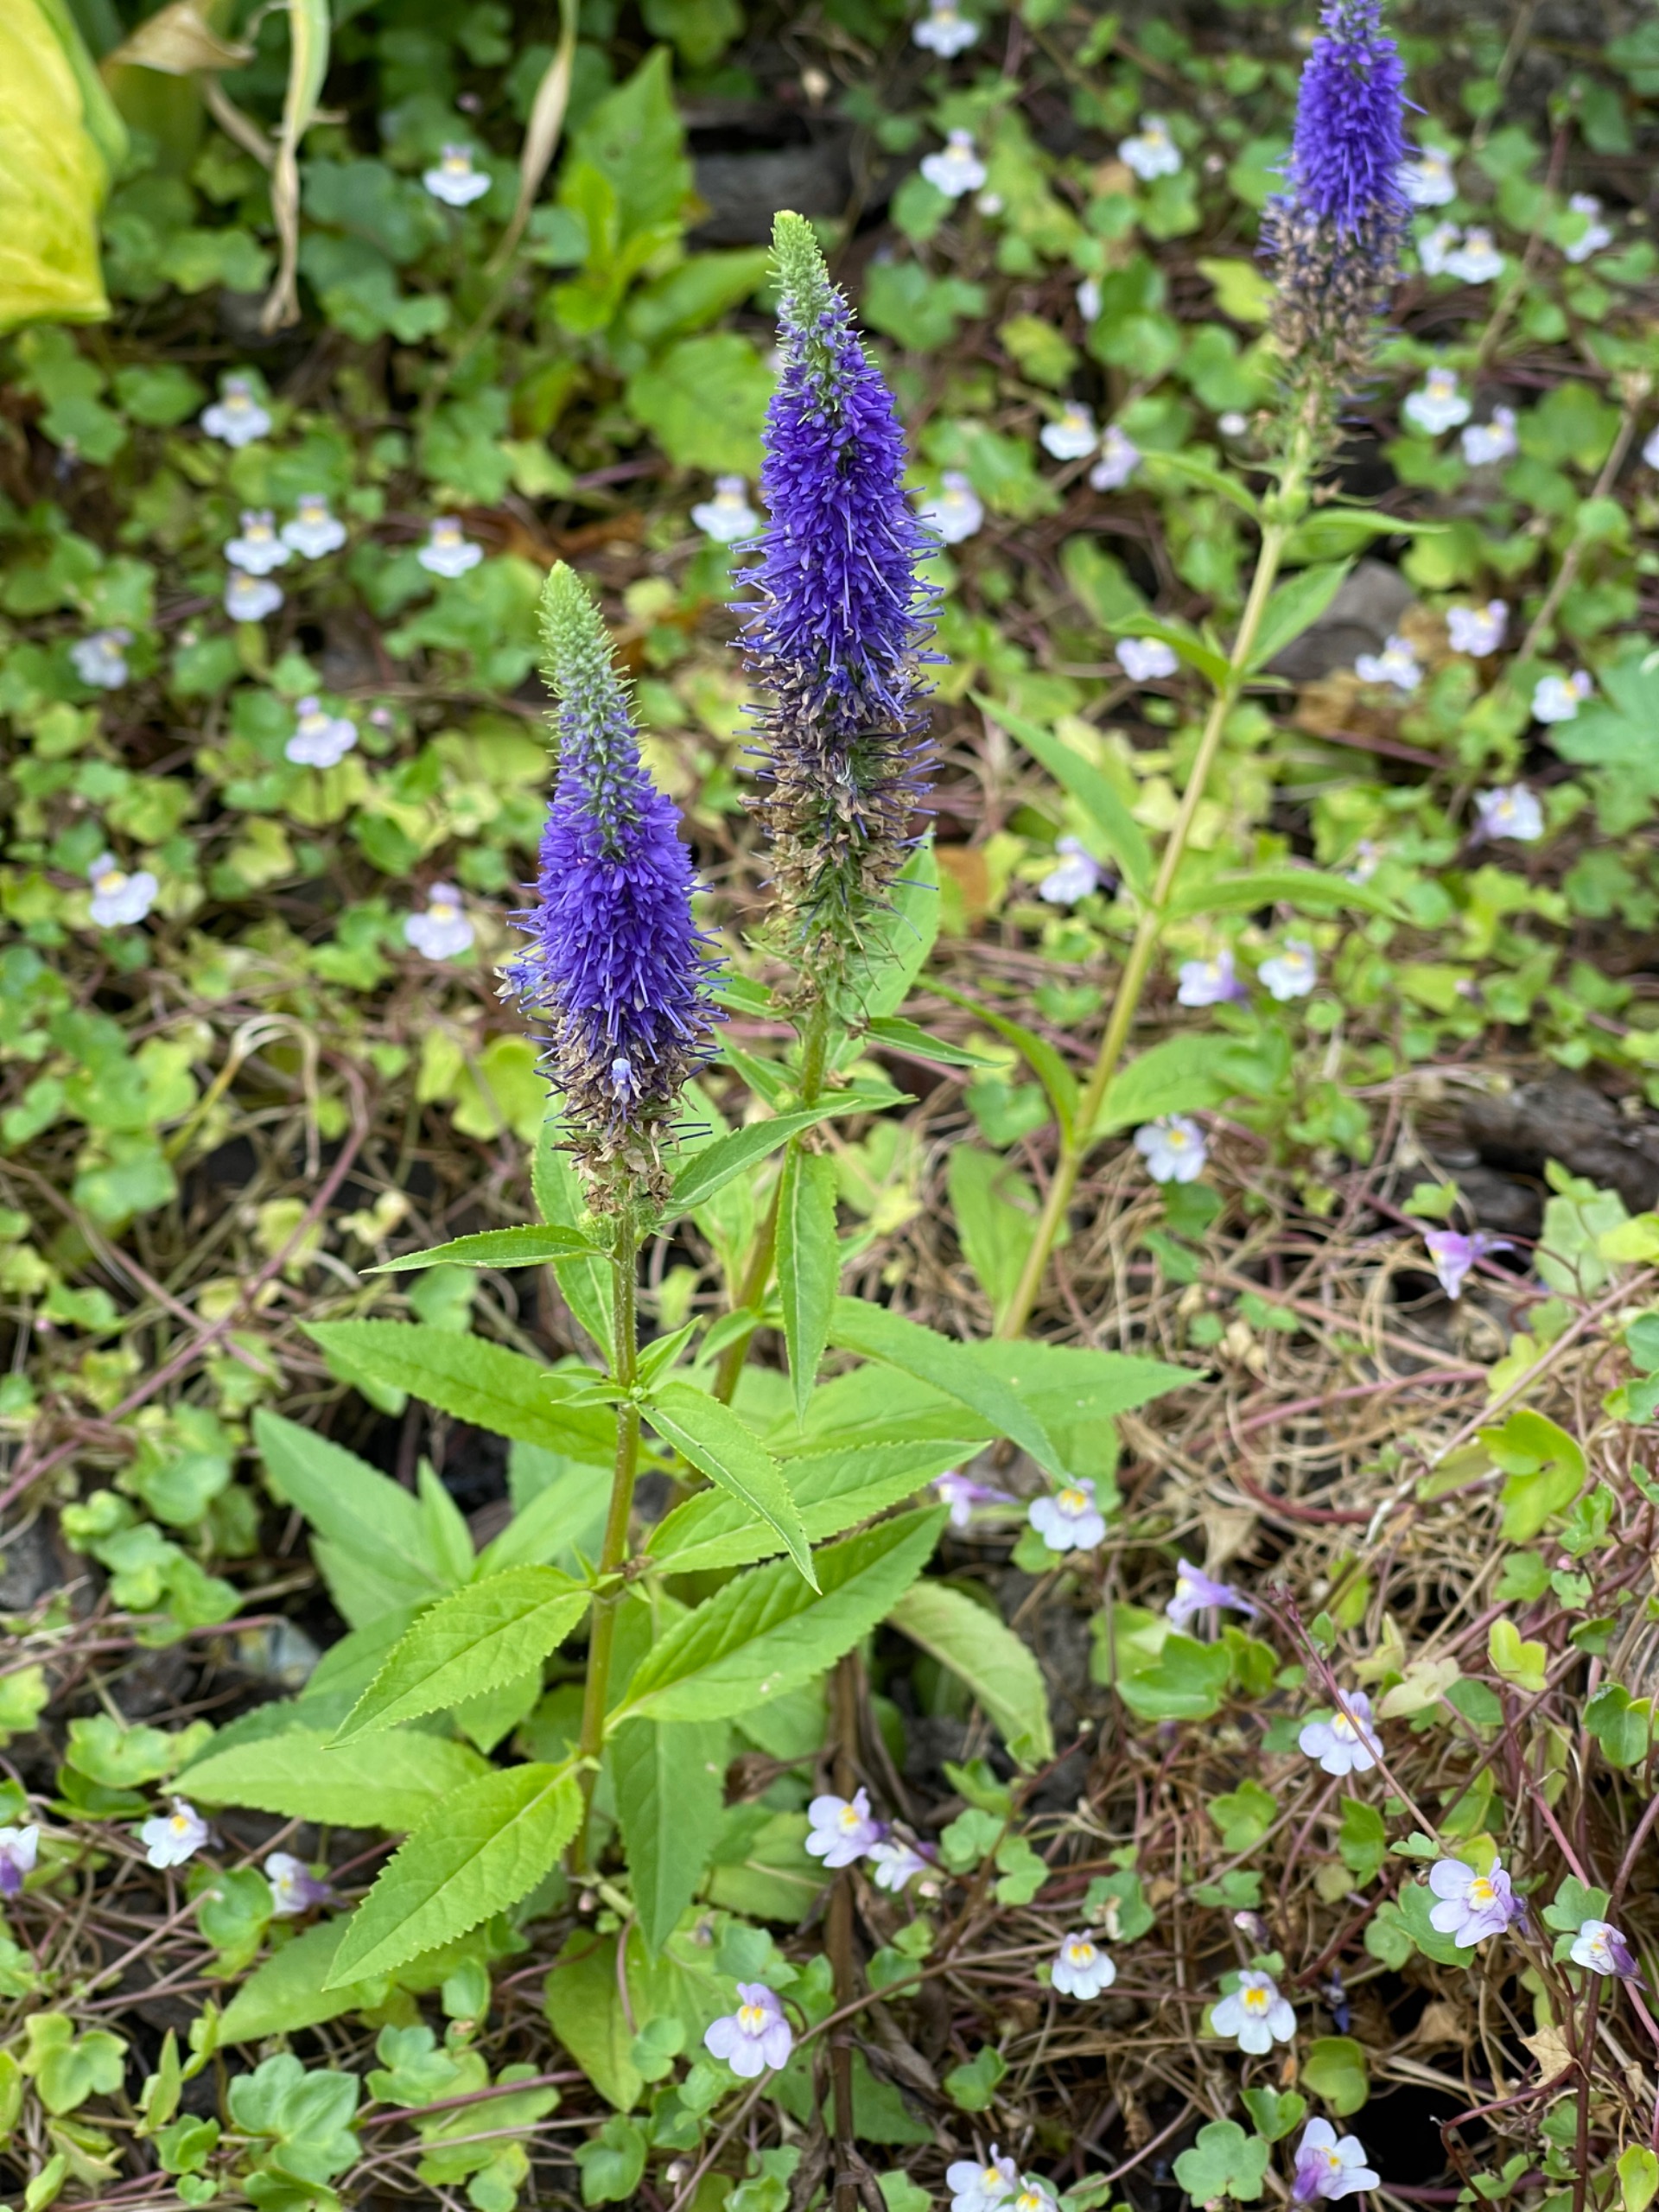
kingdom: Plantae
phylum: Tracheophyta
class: Magnoliopsida
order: Lamiales
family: Plantaginaceae
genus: Veronica
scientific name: Veronica longifolia
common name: Langbladet ærenpris
